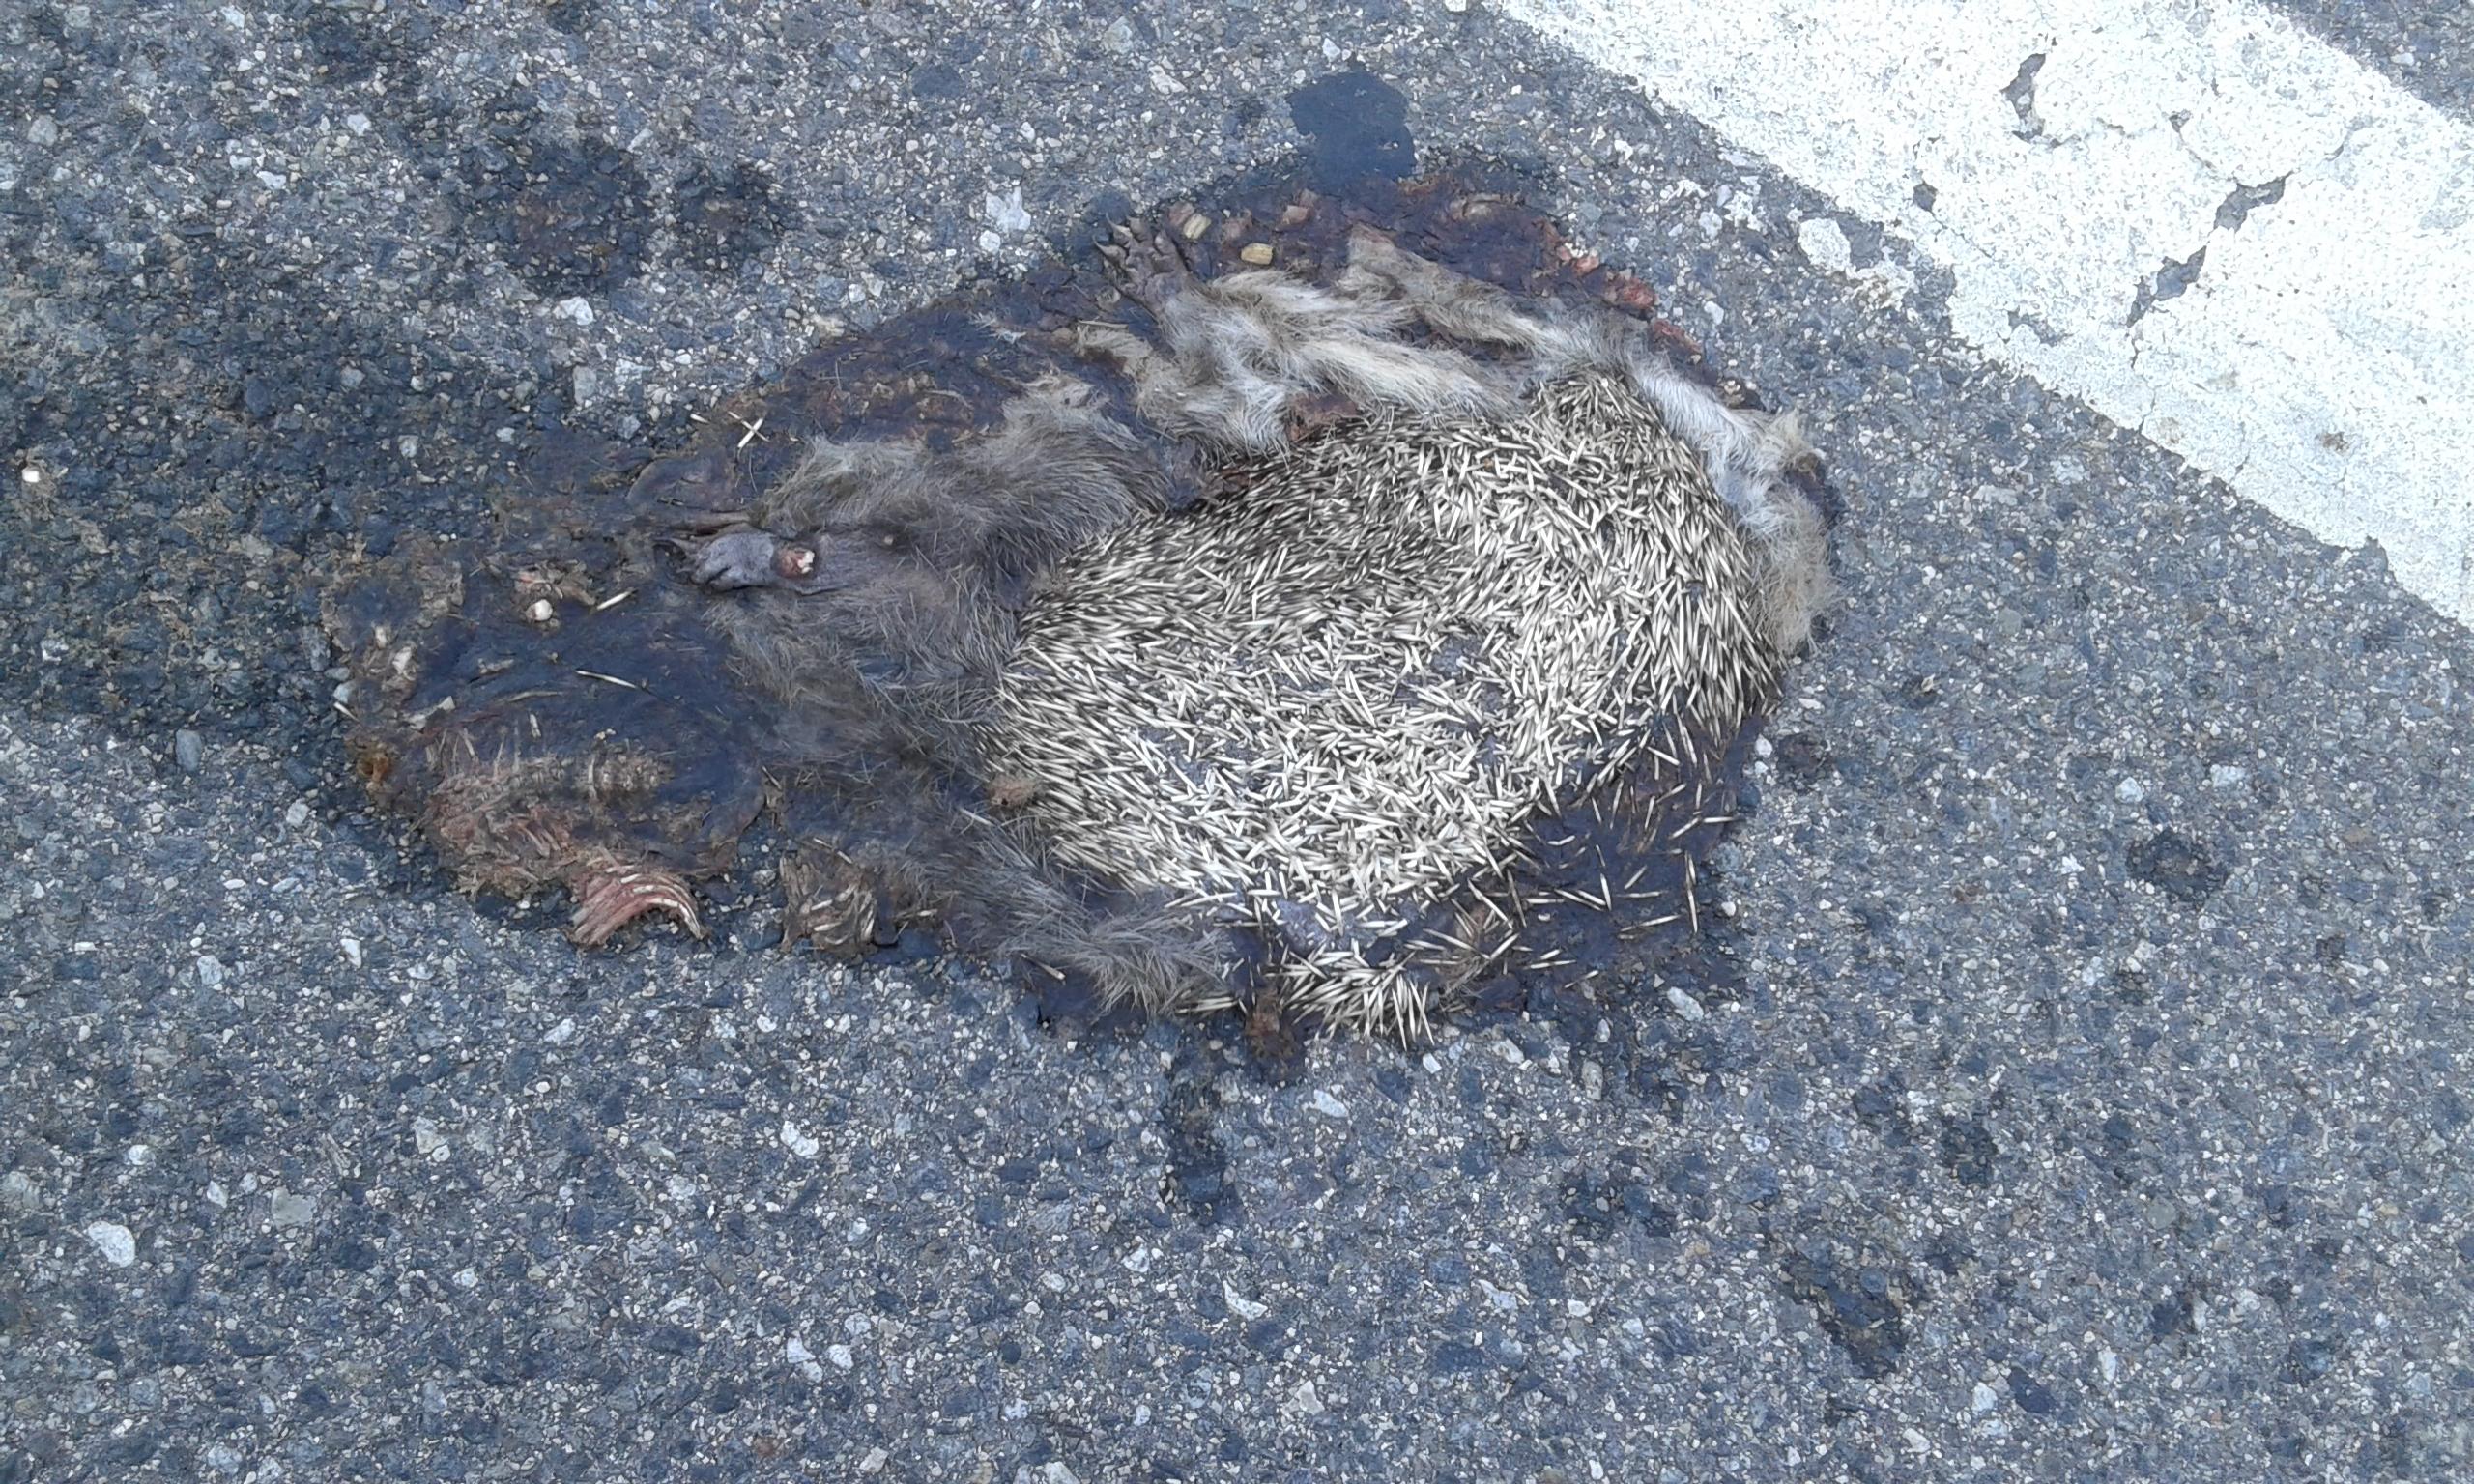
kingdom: Animalia
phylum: Chordata
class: Mammalia
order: Erinaceomorpha
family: Erinaceidae
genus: Erinaceus
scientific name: Erinaceus
